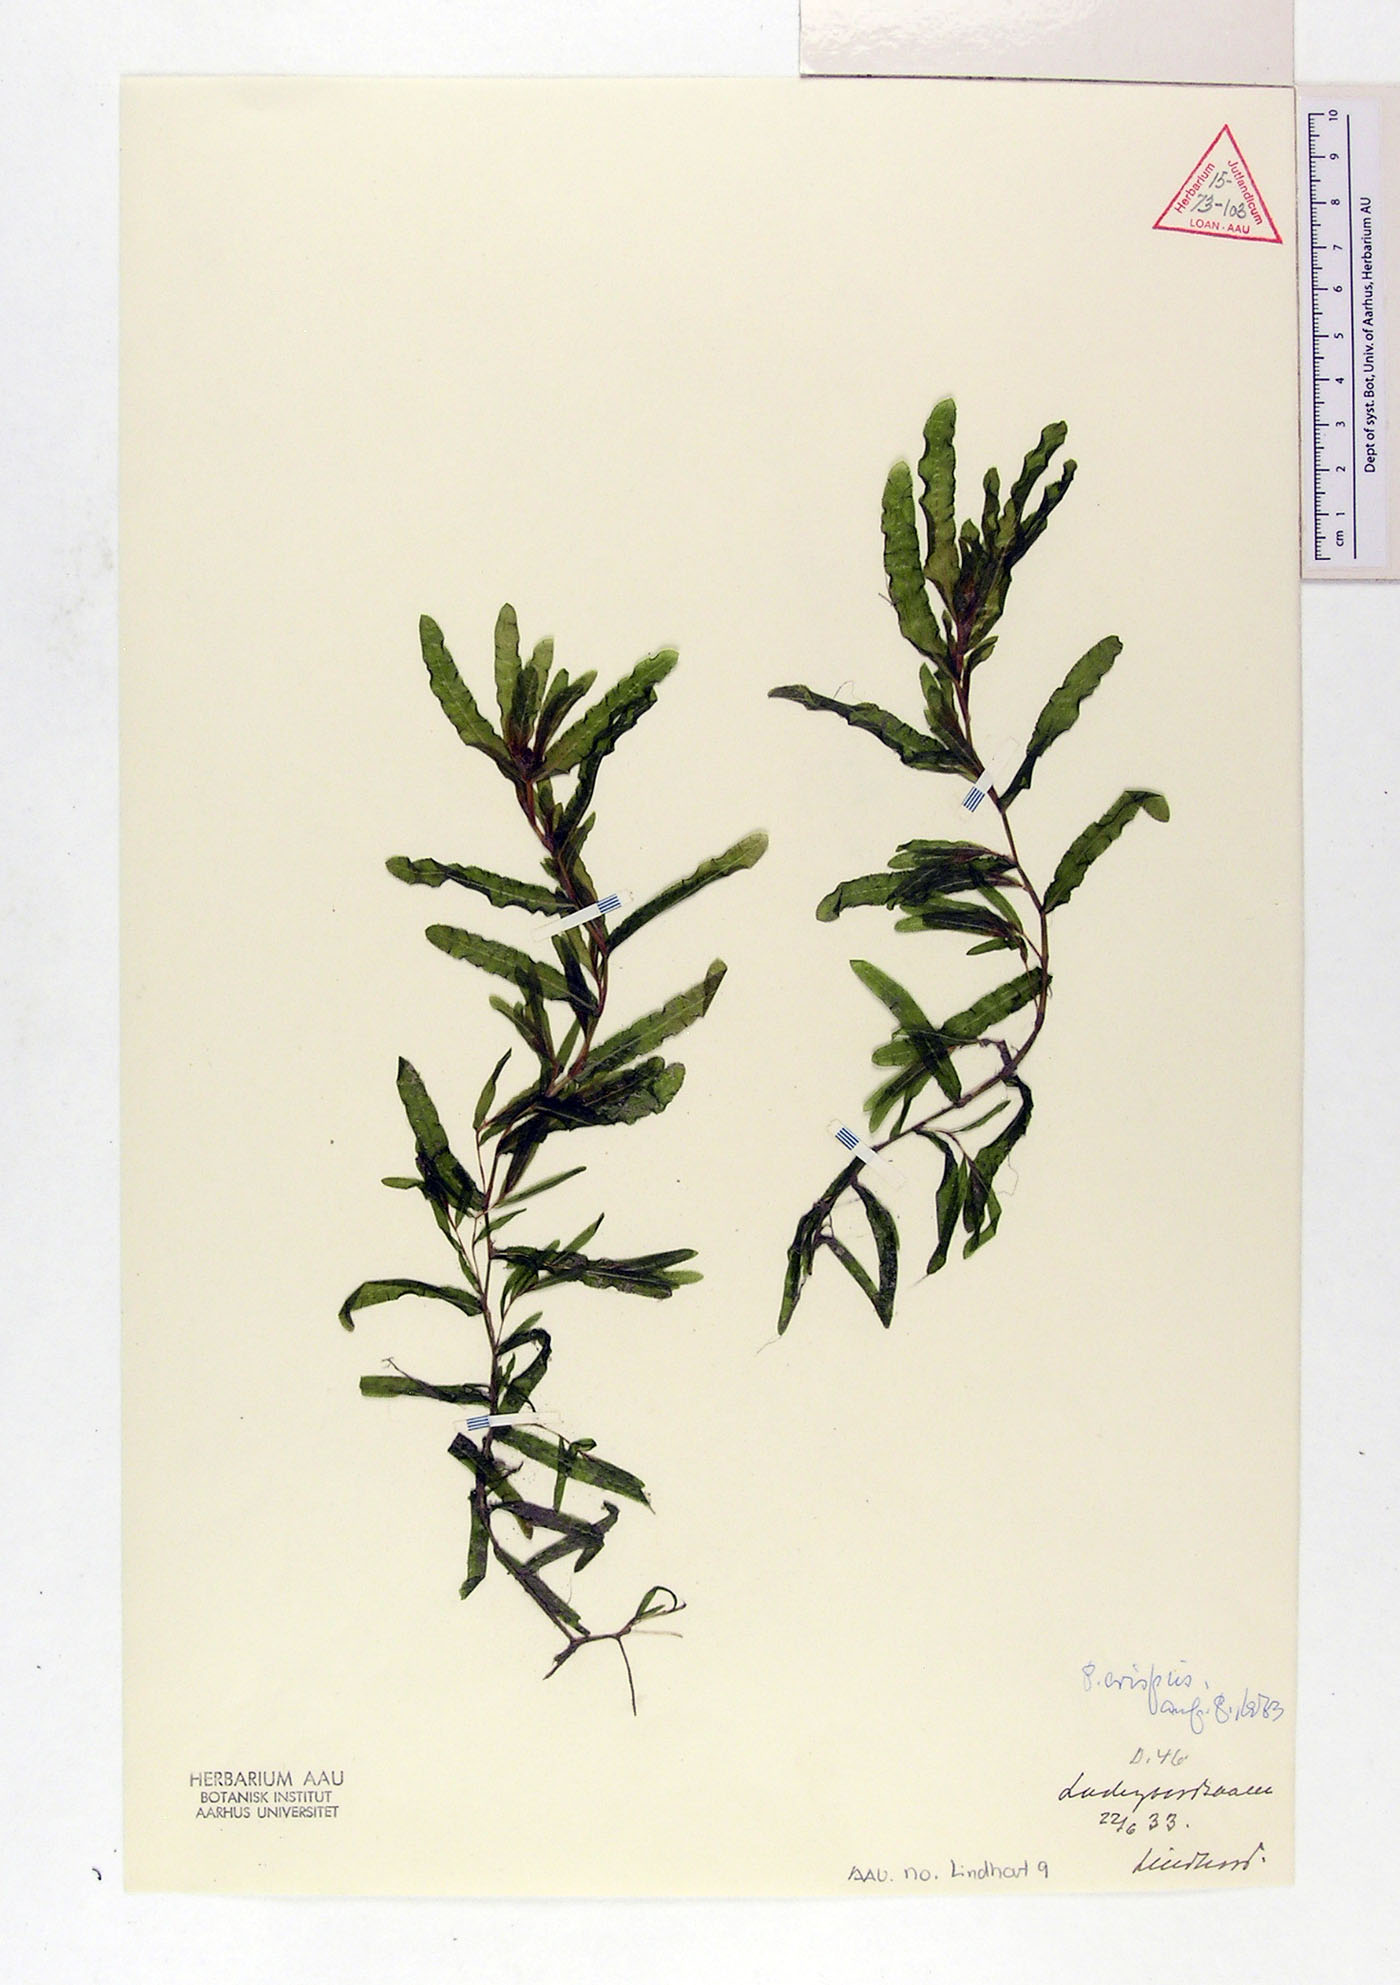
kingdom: Plantae
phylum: Tracheophyta
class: Liliopsida
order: Alismatales
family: Potamogetonaceae
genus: Potamogeton
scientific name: Potamogeton crispus
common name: Curled pondweed
